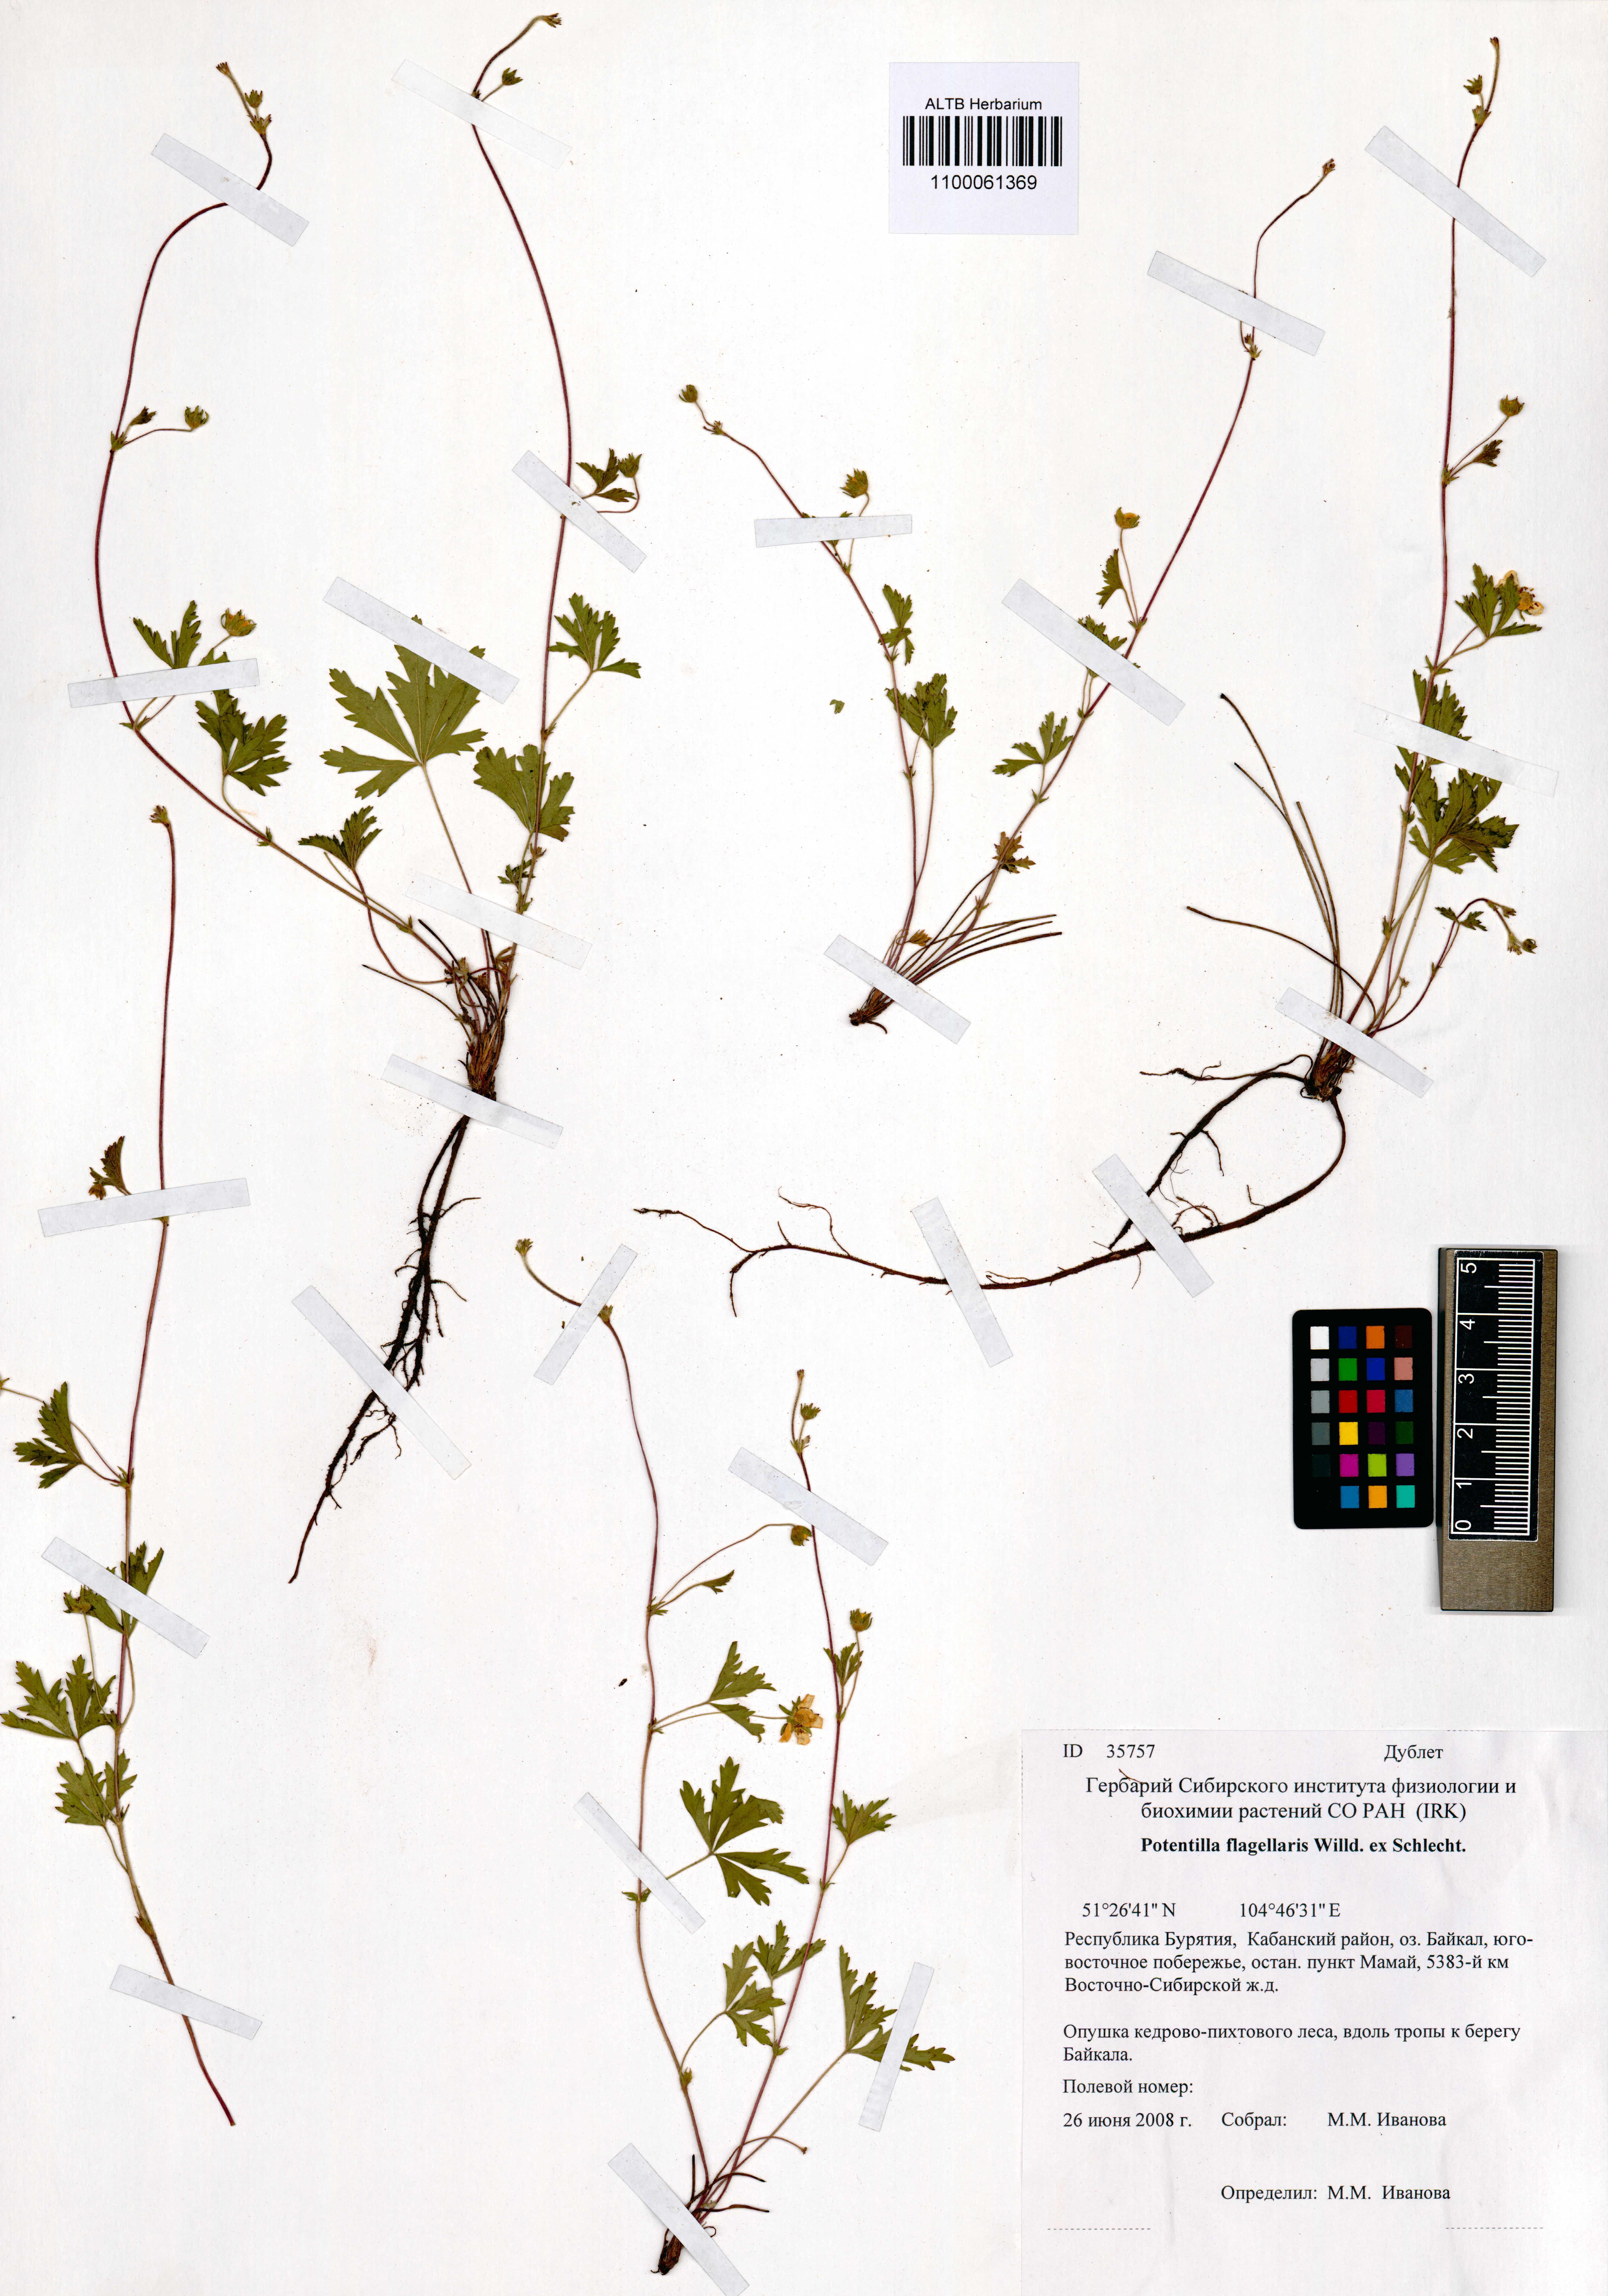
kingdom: Plantae
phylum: Tracheophyta
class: Magnoliopsida
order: Rosales
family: Rosaceae
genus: Potentilla
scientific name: Potentilla flagellaris
